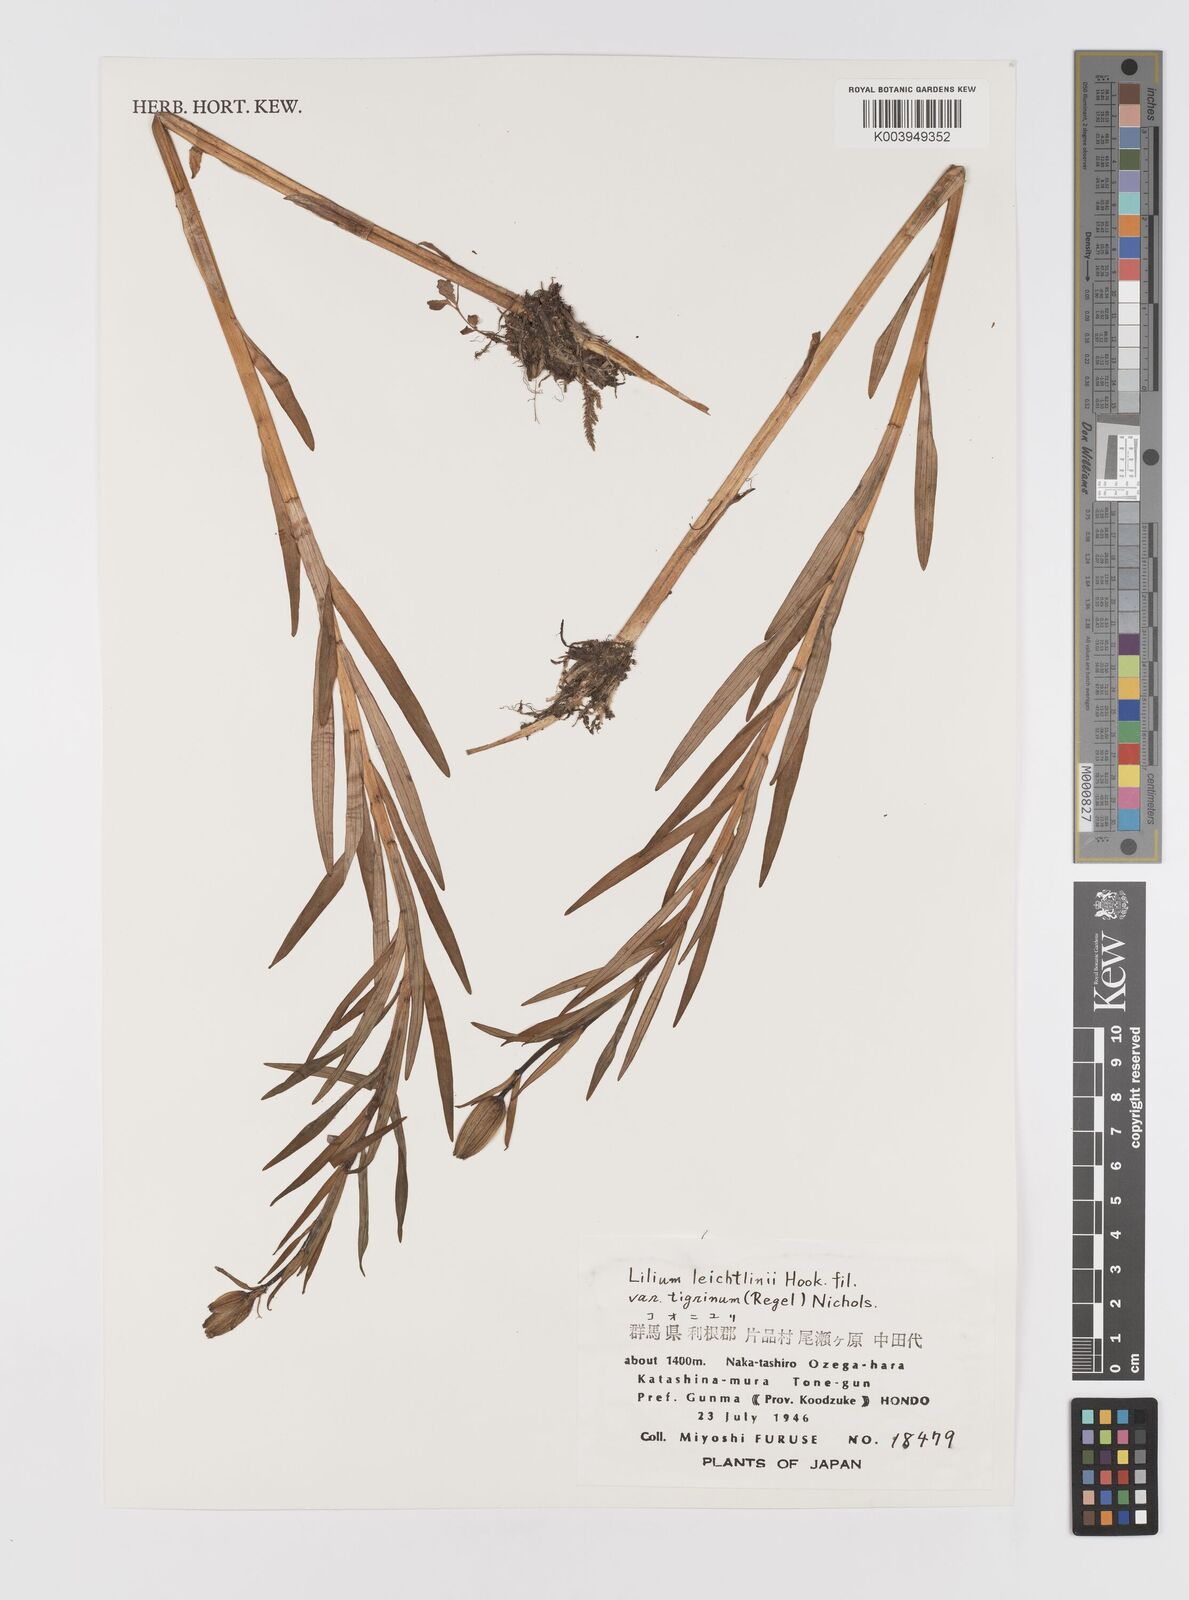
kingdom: Plantae
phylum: Tracheophyta
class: Liliopsida
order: Liliales
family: Liliaceae
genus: Lilium
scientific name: Lilium leichtlinii
